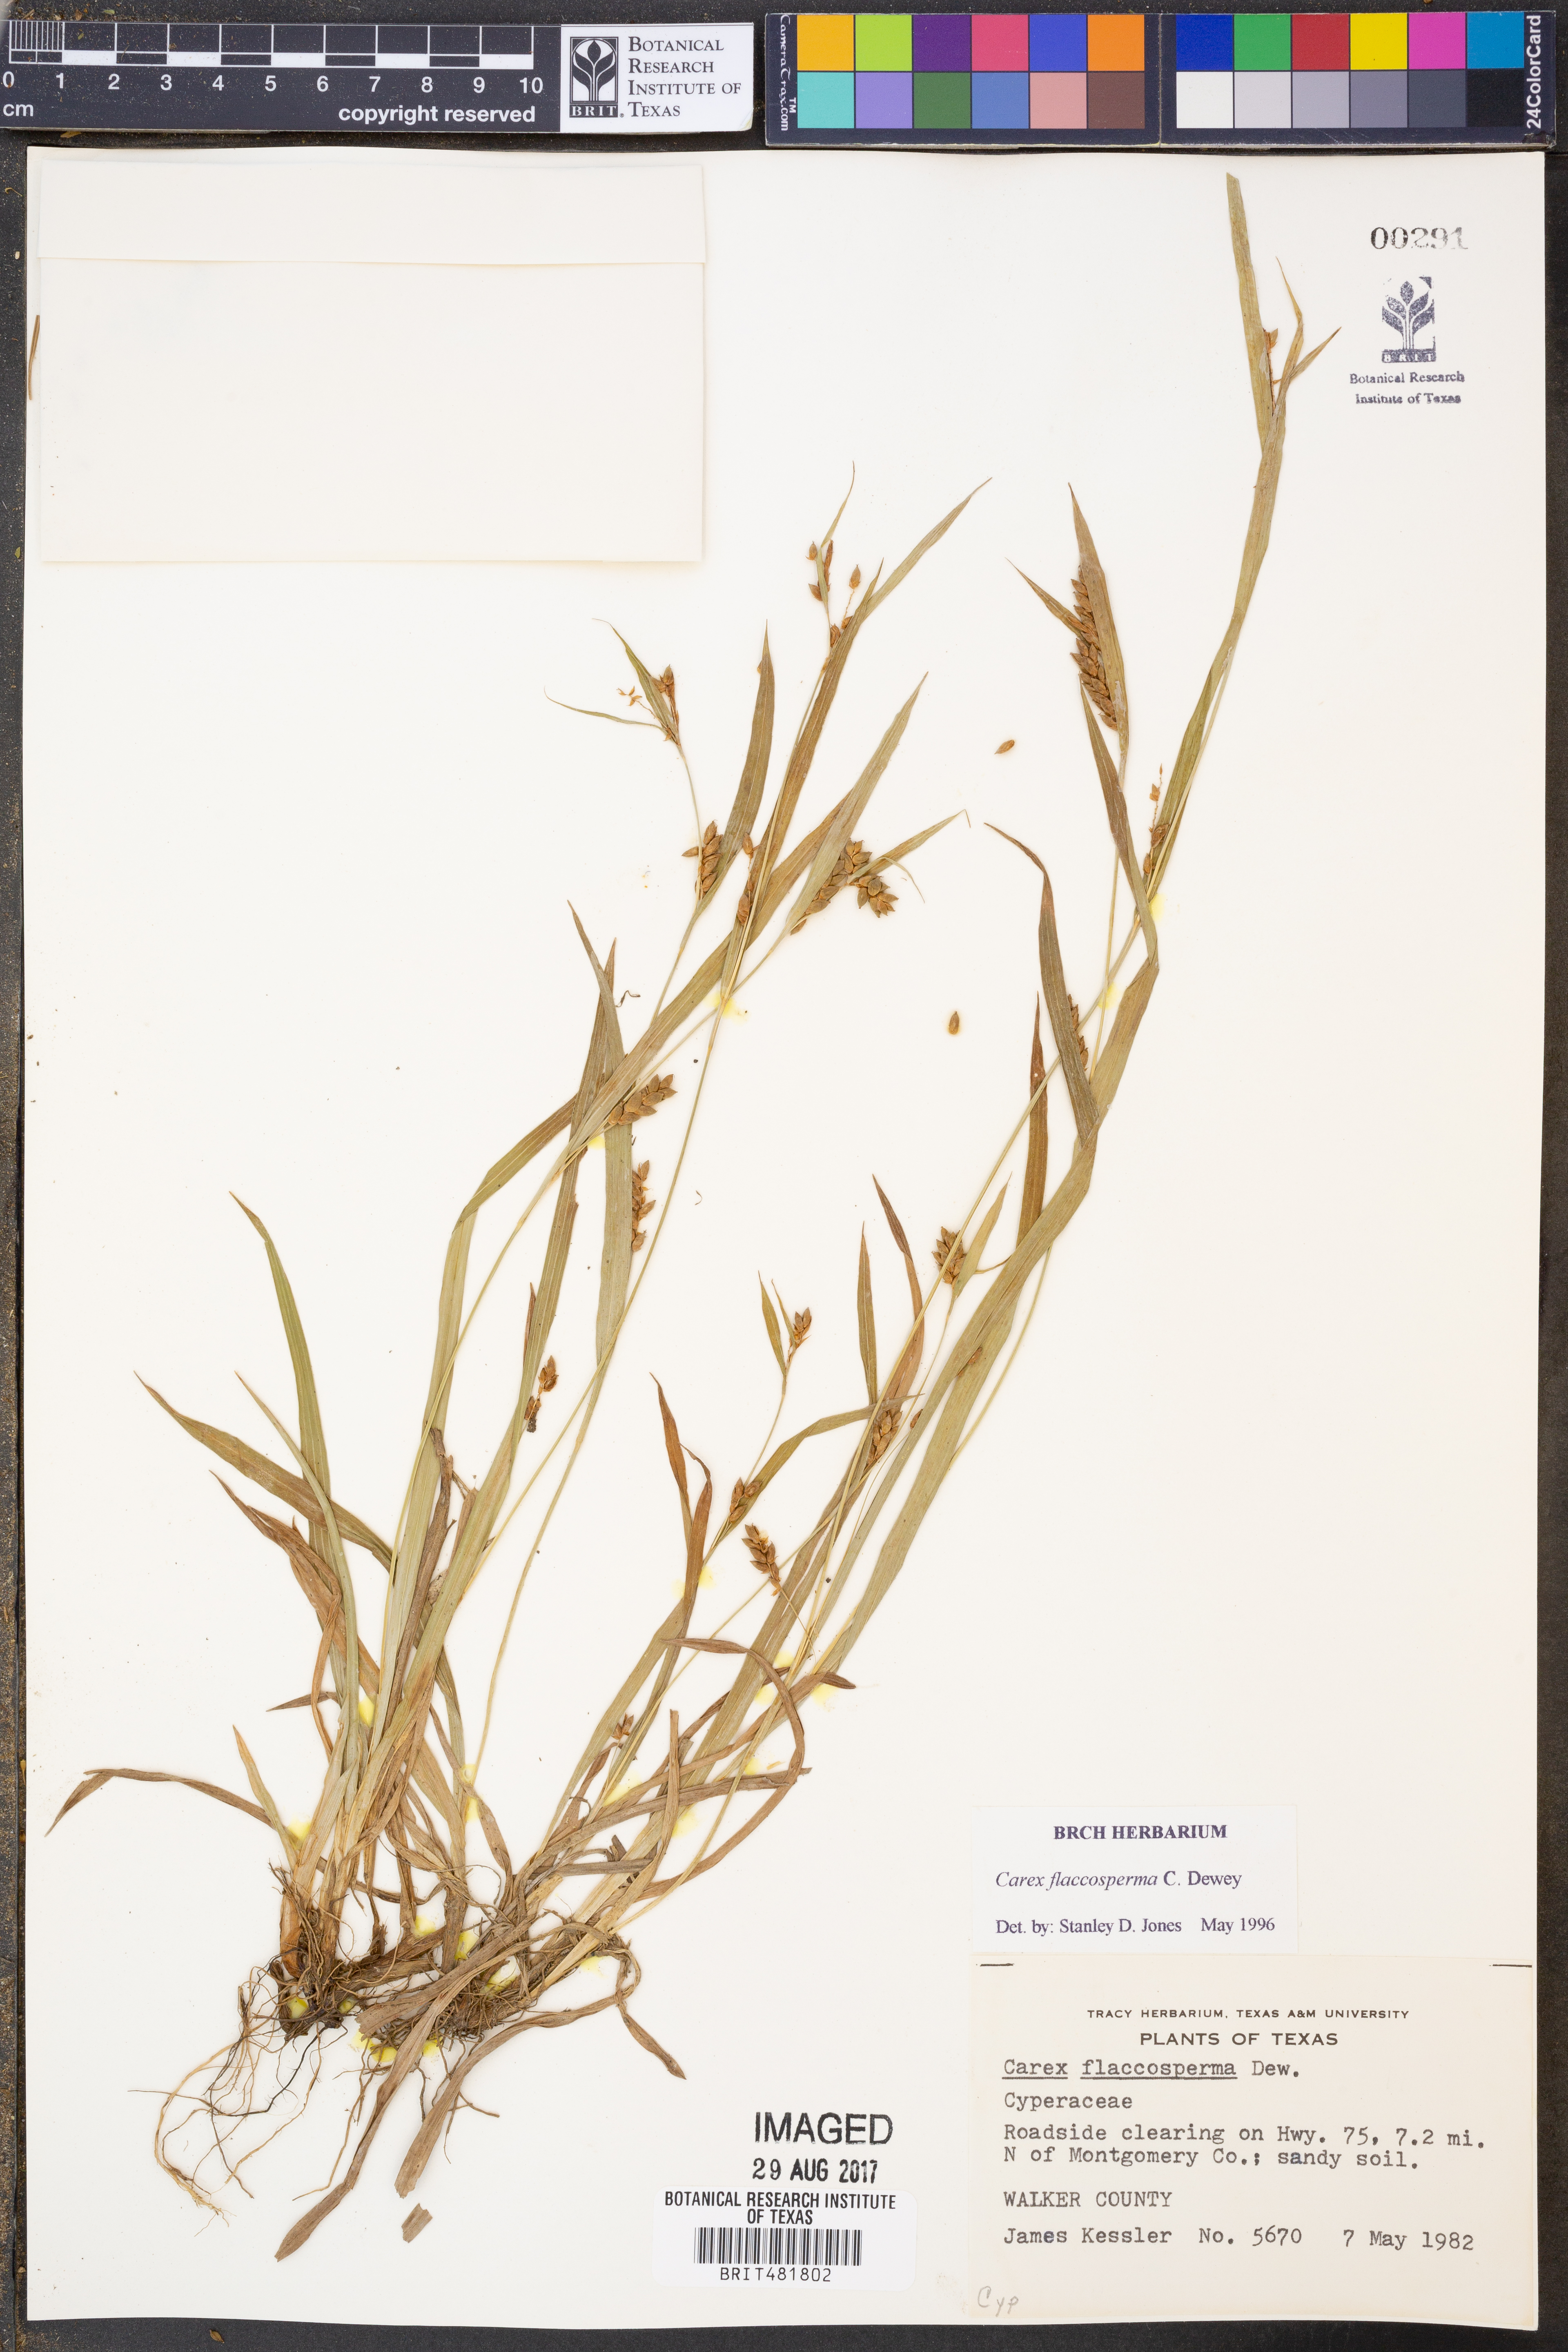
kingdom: Plantae
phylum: Tracheophyta
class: Liliopsida
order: Poales
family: Cyperaceae
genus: Carex
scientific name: Carex flaccosperma
